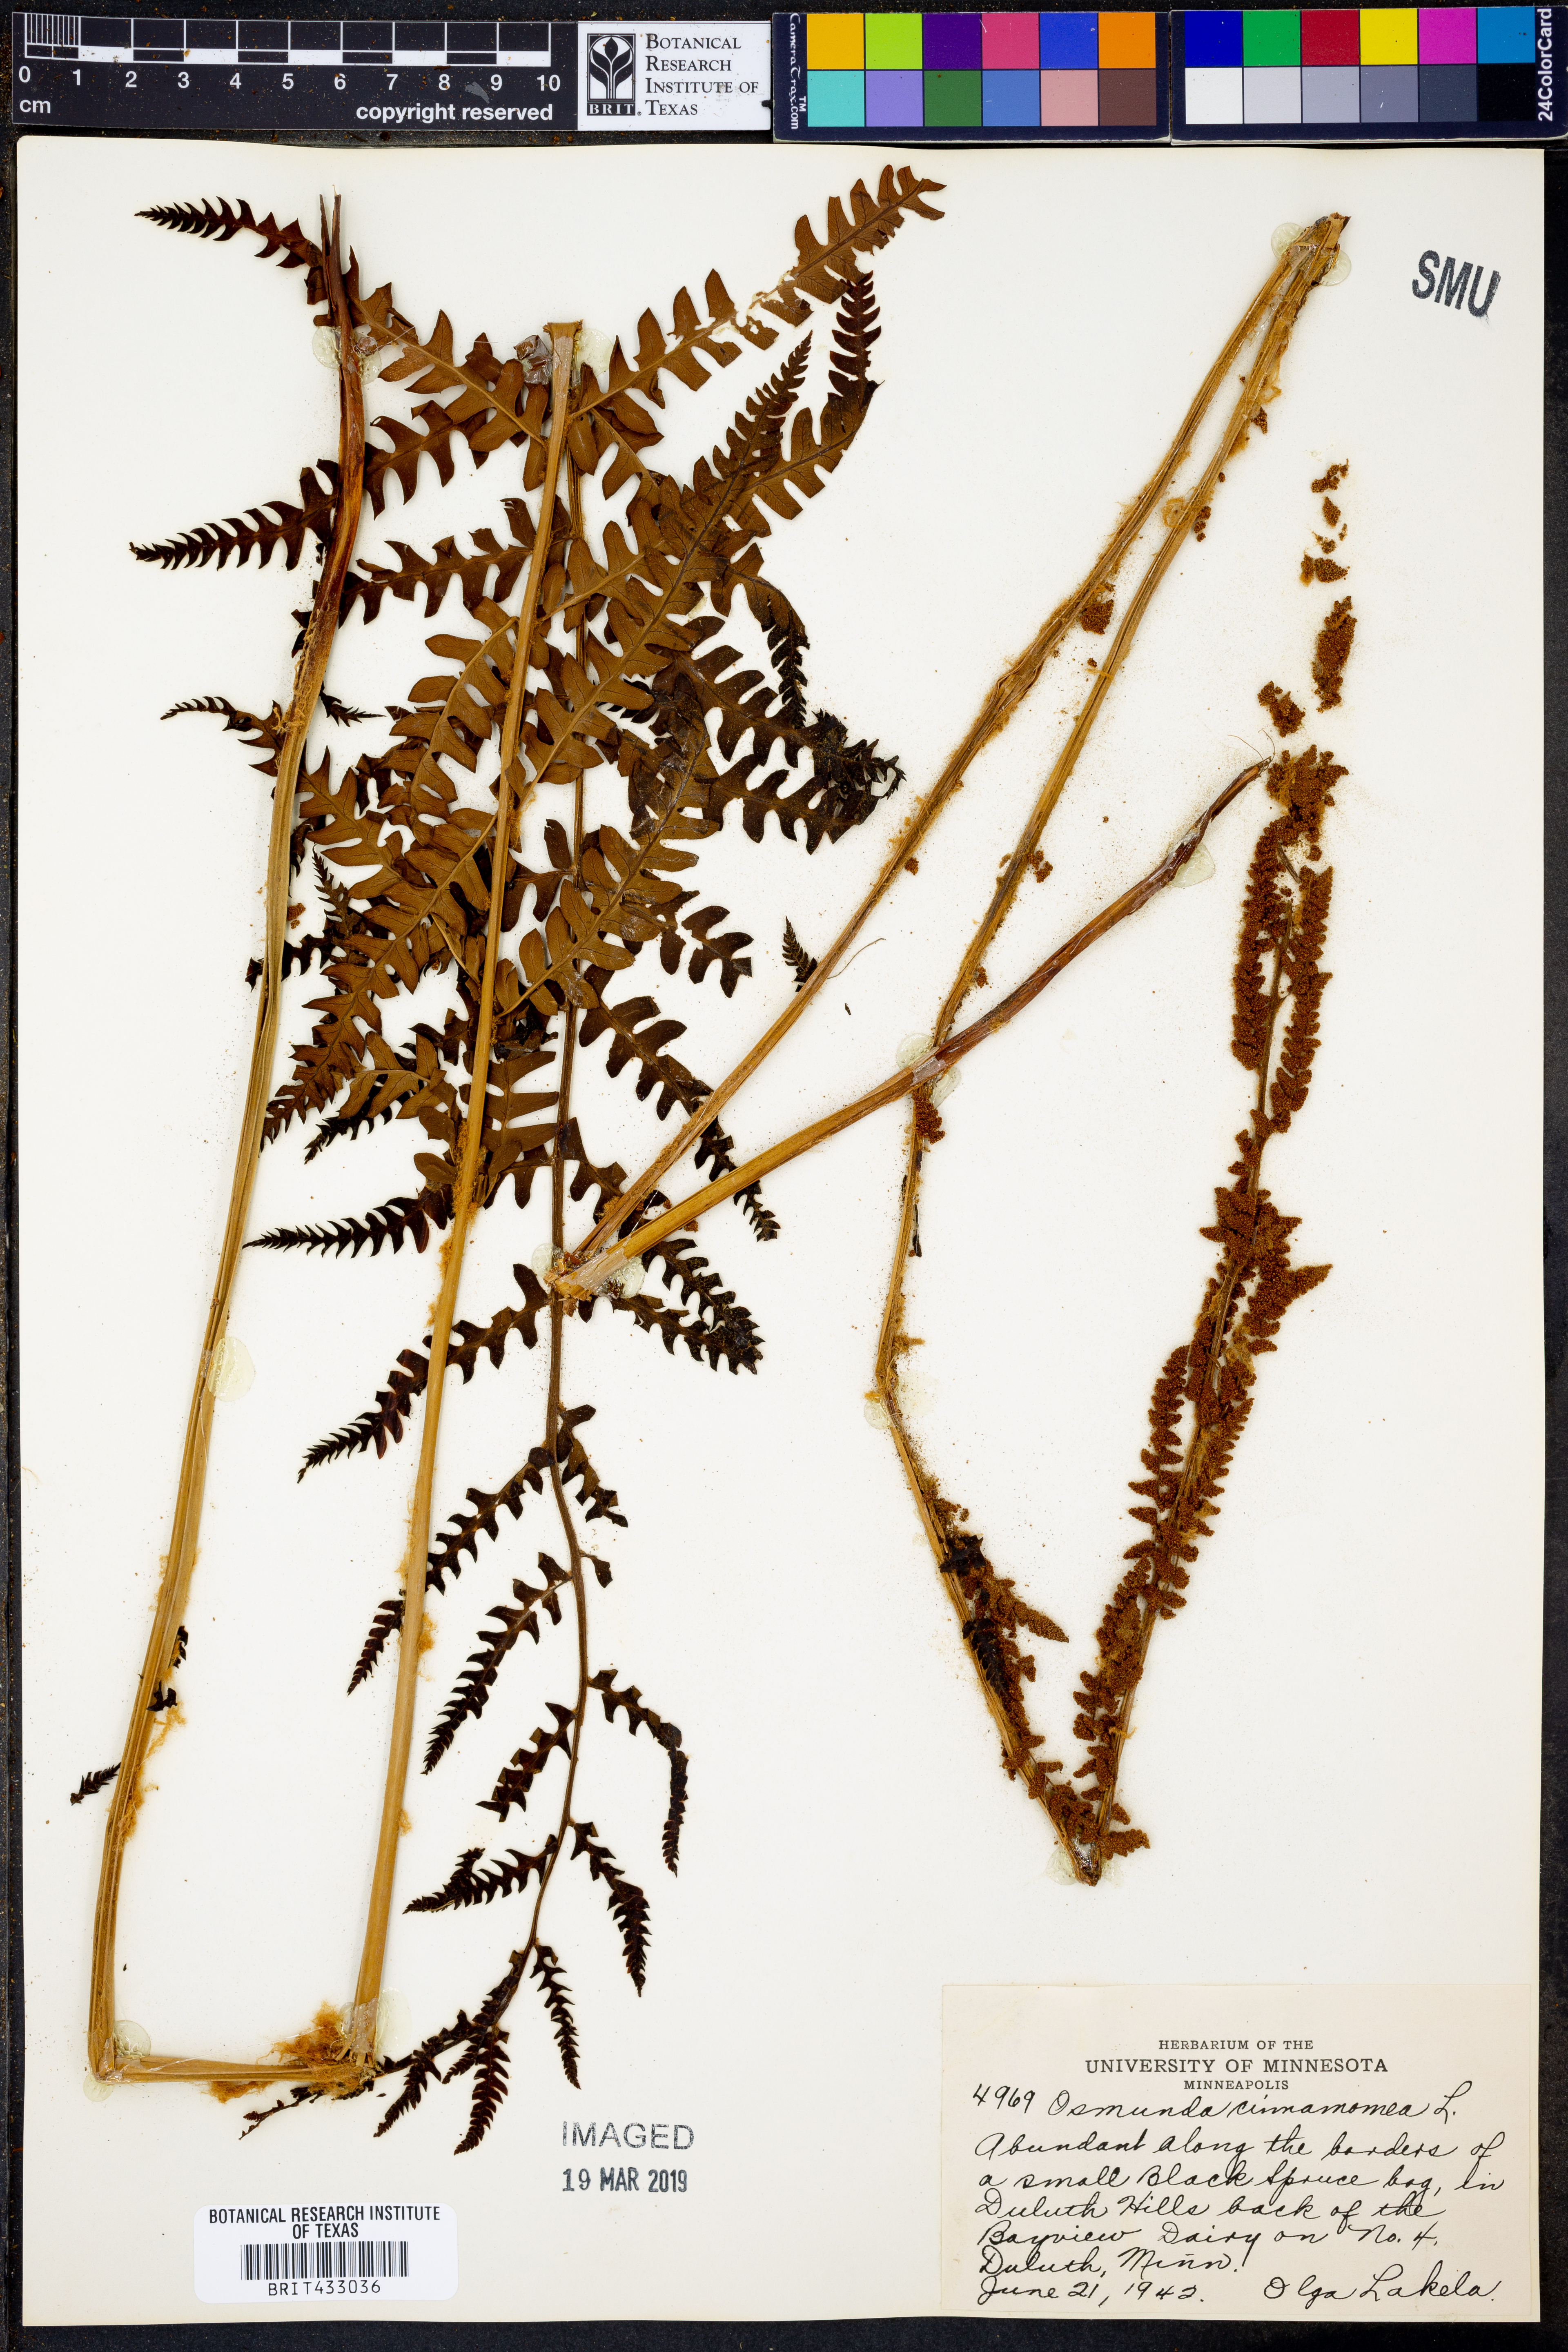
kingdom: Plantae
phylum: Tracheophyta
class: Polypodiopsida
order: Osmundales
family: Osmundaceae
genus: Osmundastrum
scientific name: Osmundastrum cinnamomeum
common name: Cinnamon fern
